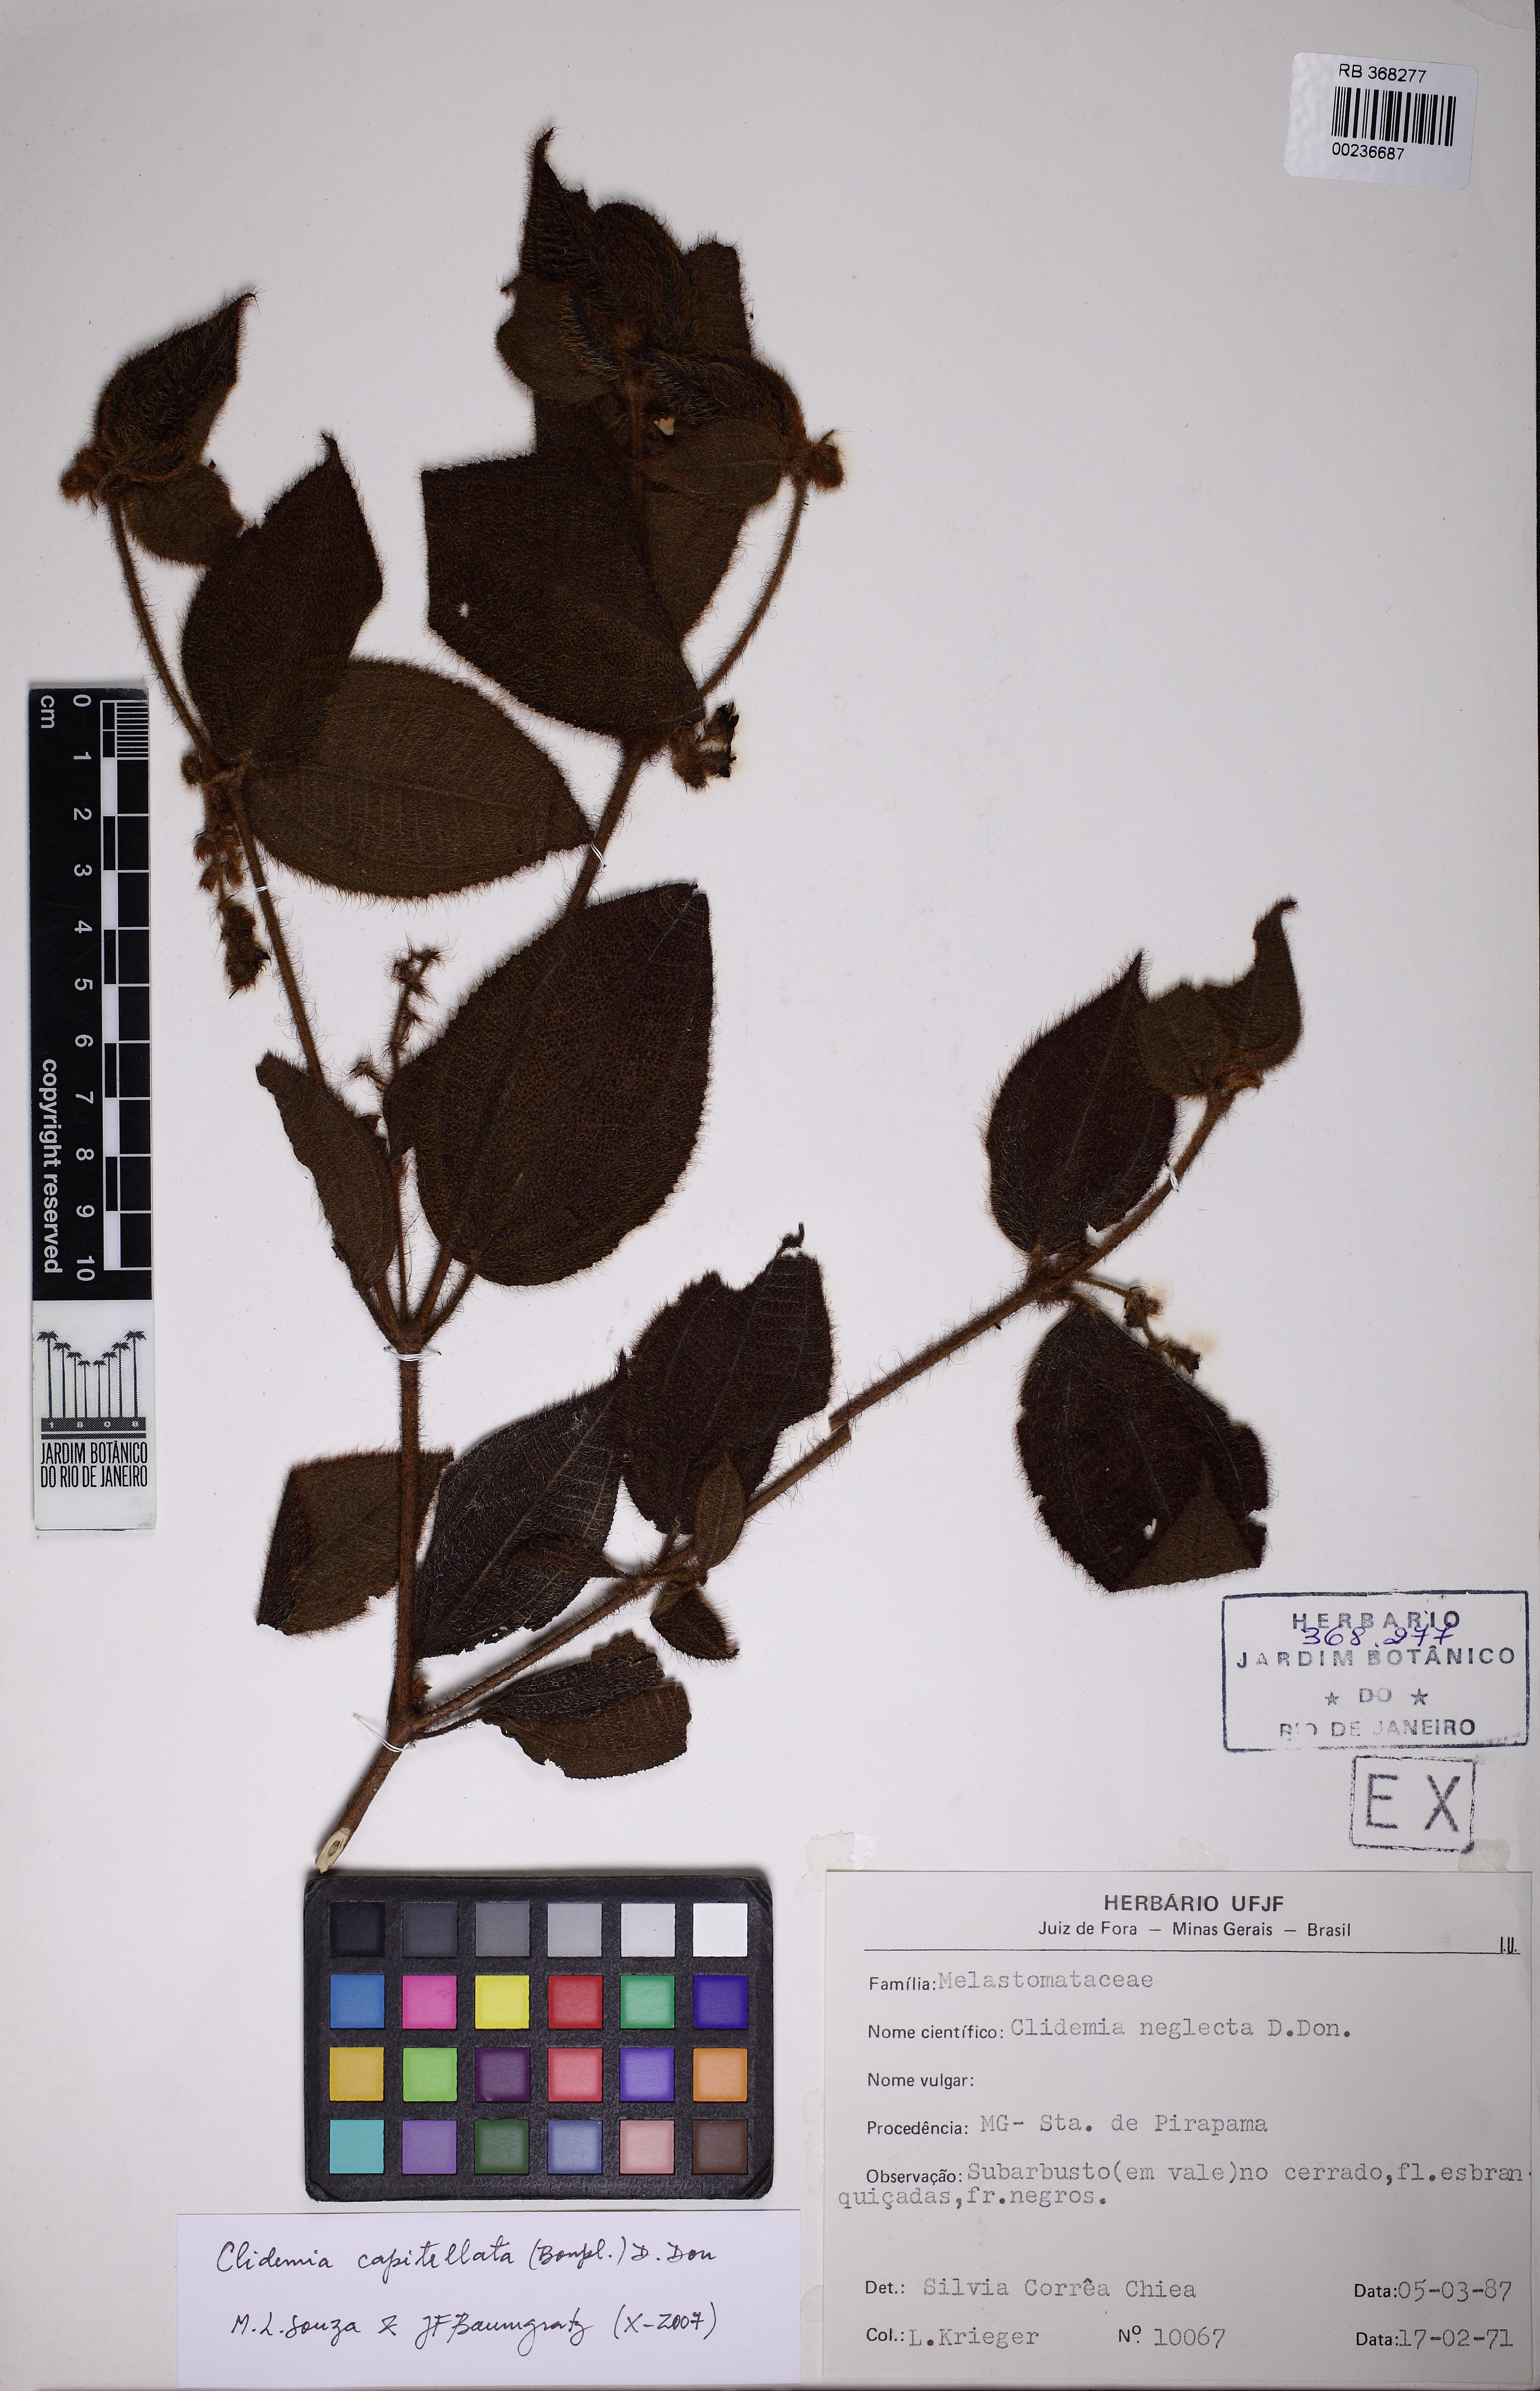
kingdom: Plantae
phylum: Tracheophyta
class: Magnoliopsida
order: Myrtales
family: Melastomataceae
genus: Miconia
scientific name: Miconia dependens
